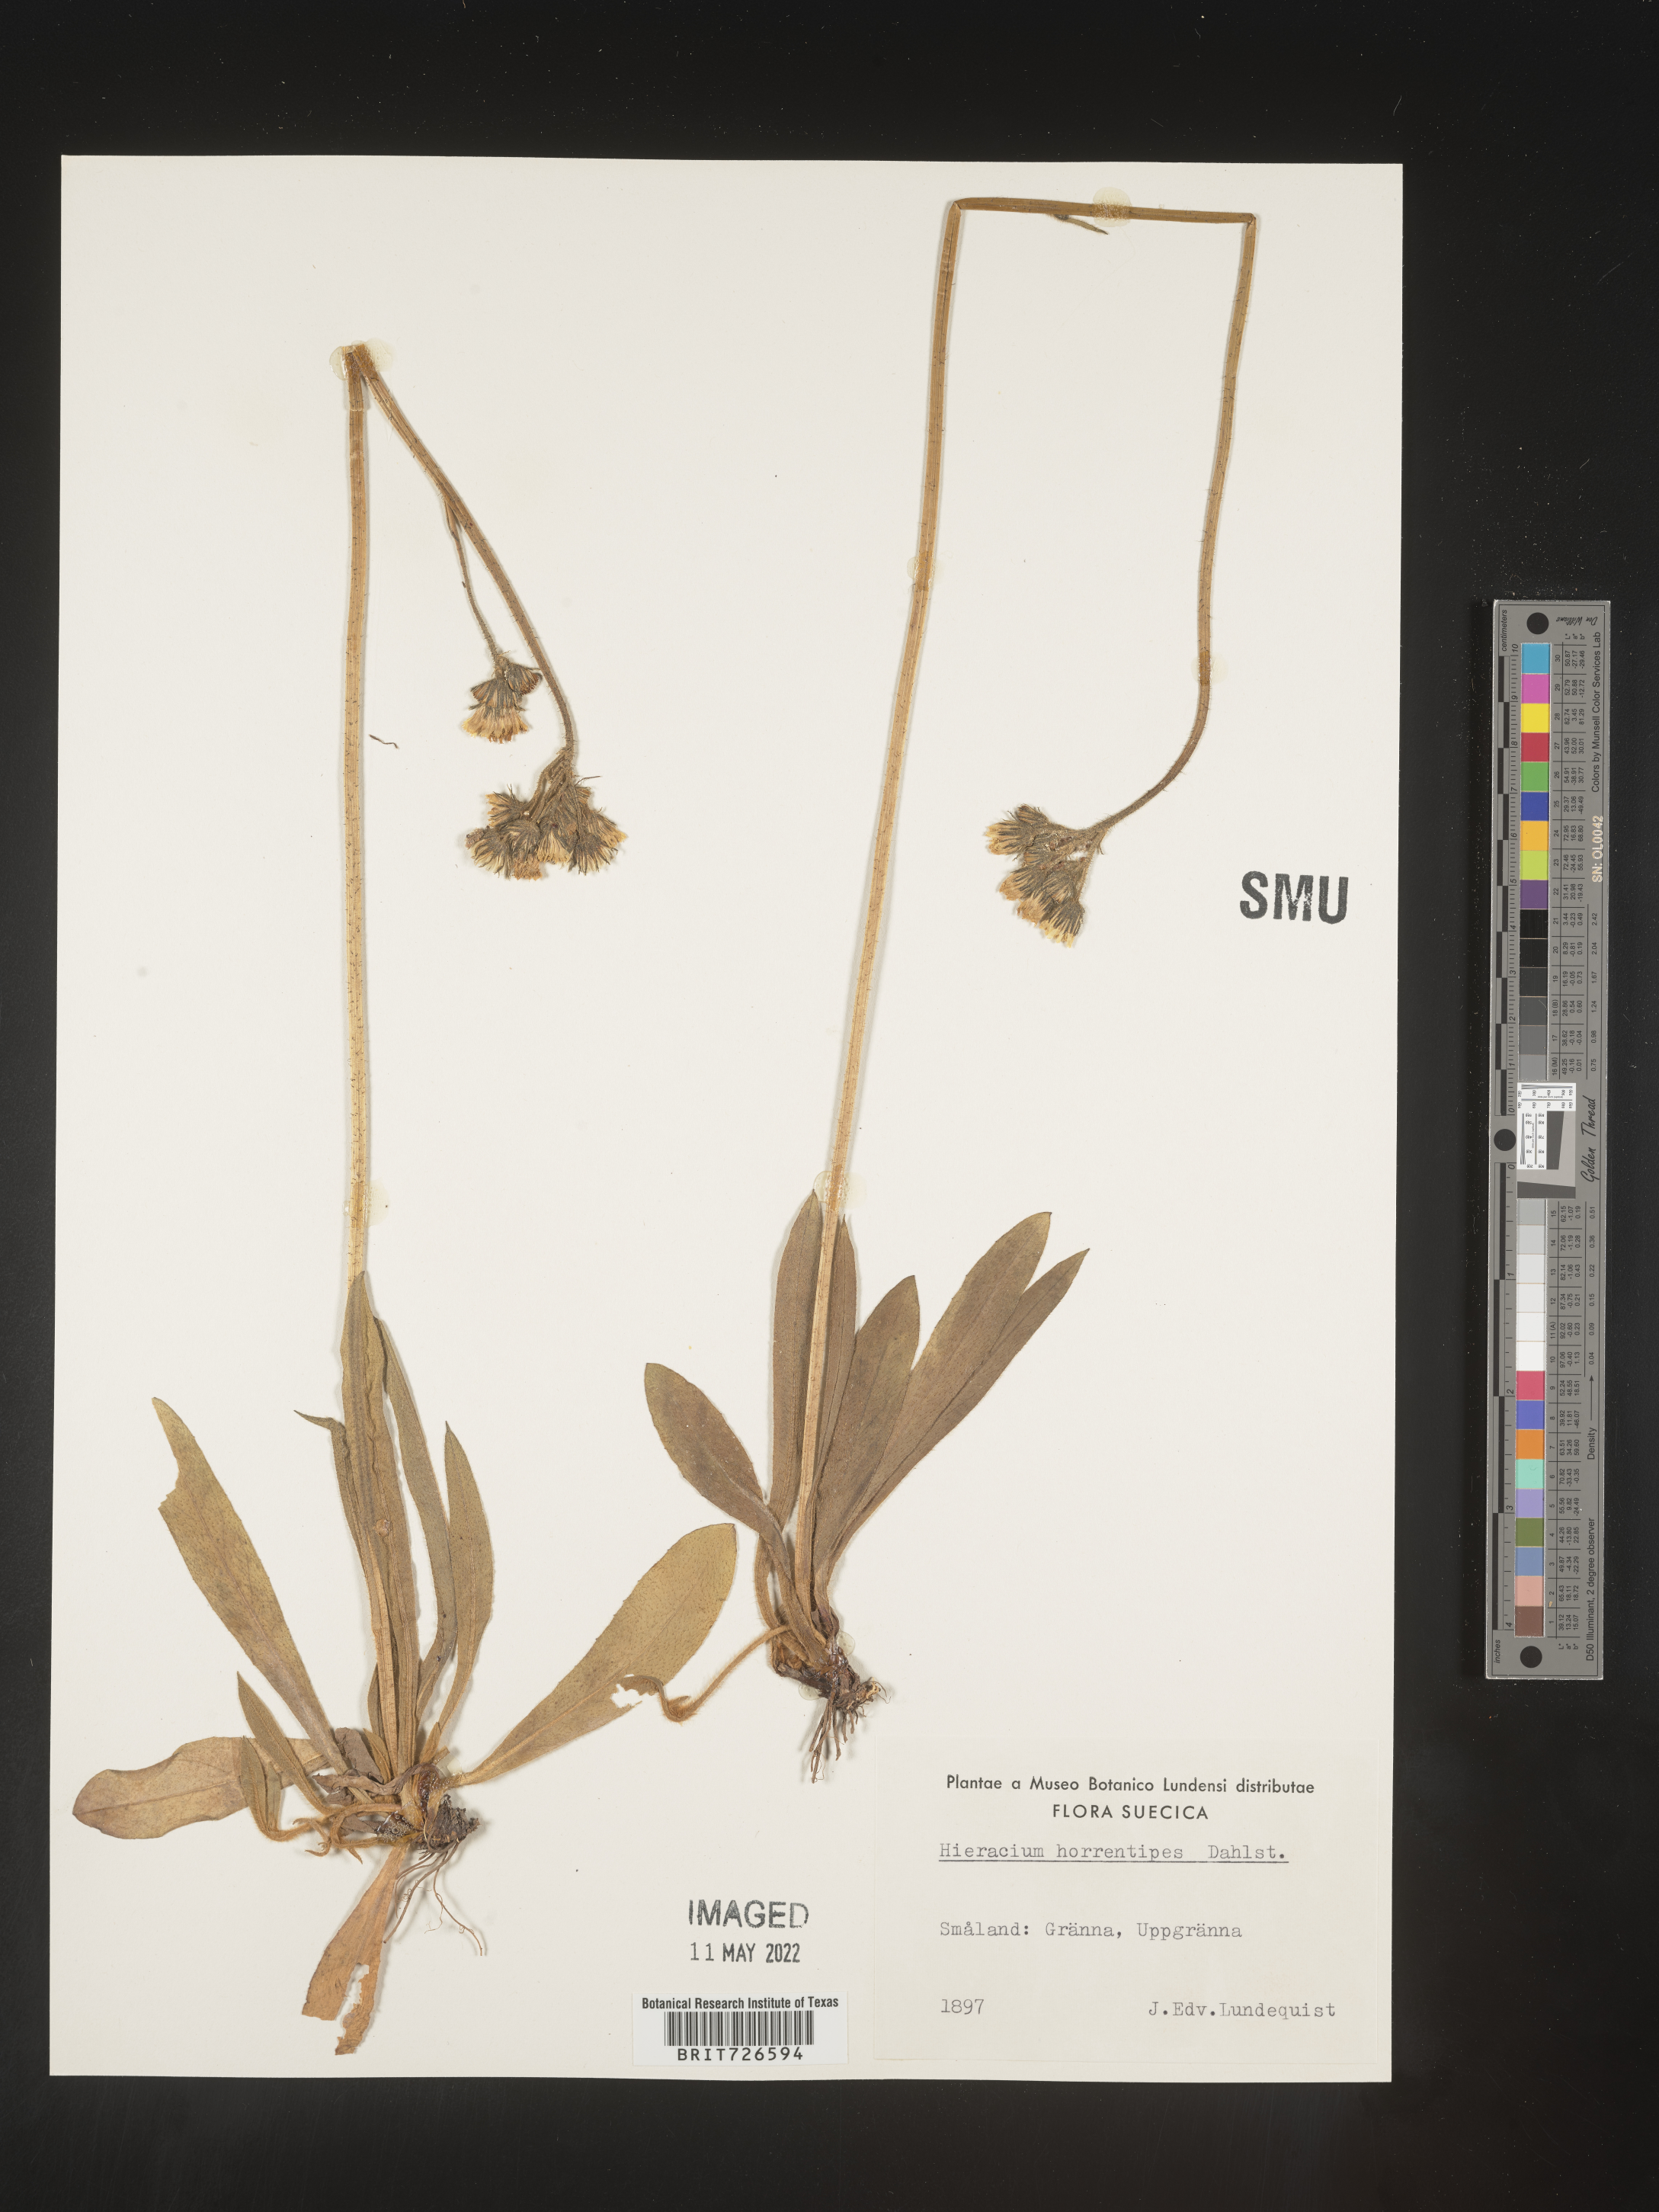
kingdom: Plantae
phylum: Tracheophyta
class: Magnoliopsida
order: Asterales
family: Asteraceae
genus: Hieracium
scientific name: Hieracium
